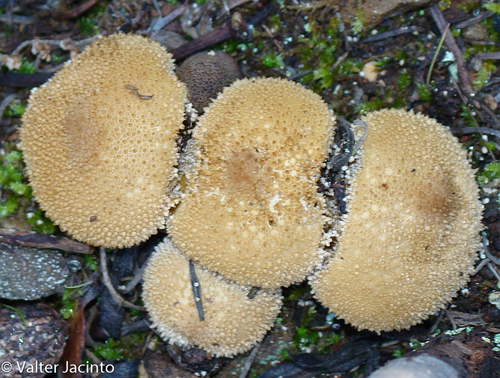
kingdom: Fungi
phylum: Basidiomycota
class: Agaricomycetes
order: Agaricales
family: Lycoperdaceae
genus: Lycoperdon
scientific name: Lycoperdon perlatum
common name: Common puffball
